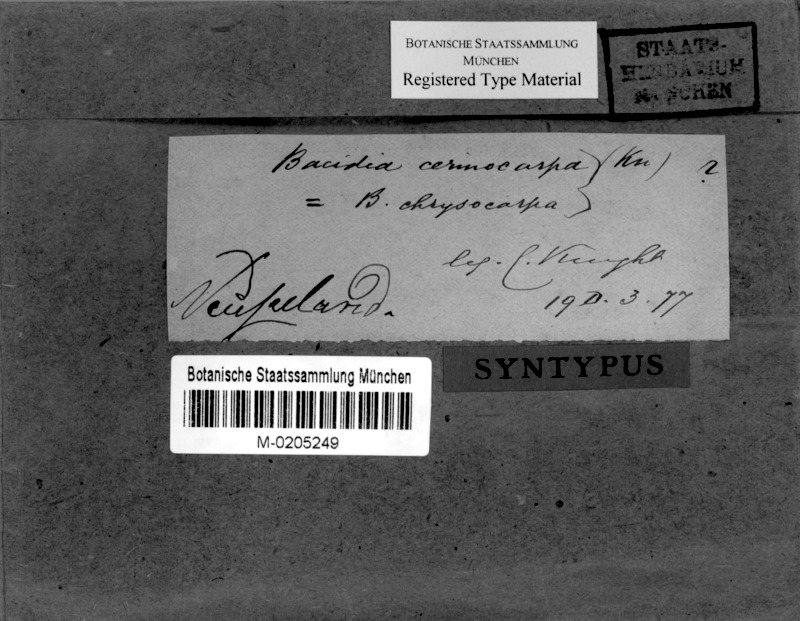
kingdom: Fungi
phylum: Ascomycota
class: Lecanoromycetes
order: Lecanorales
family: Ramalinaceae
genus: Bacidia
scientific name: Bacidia leucocarpa
